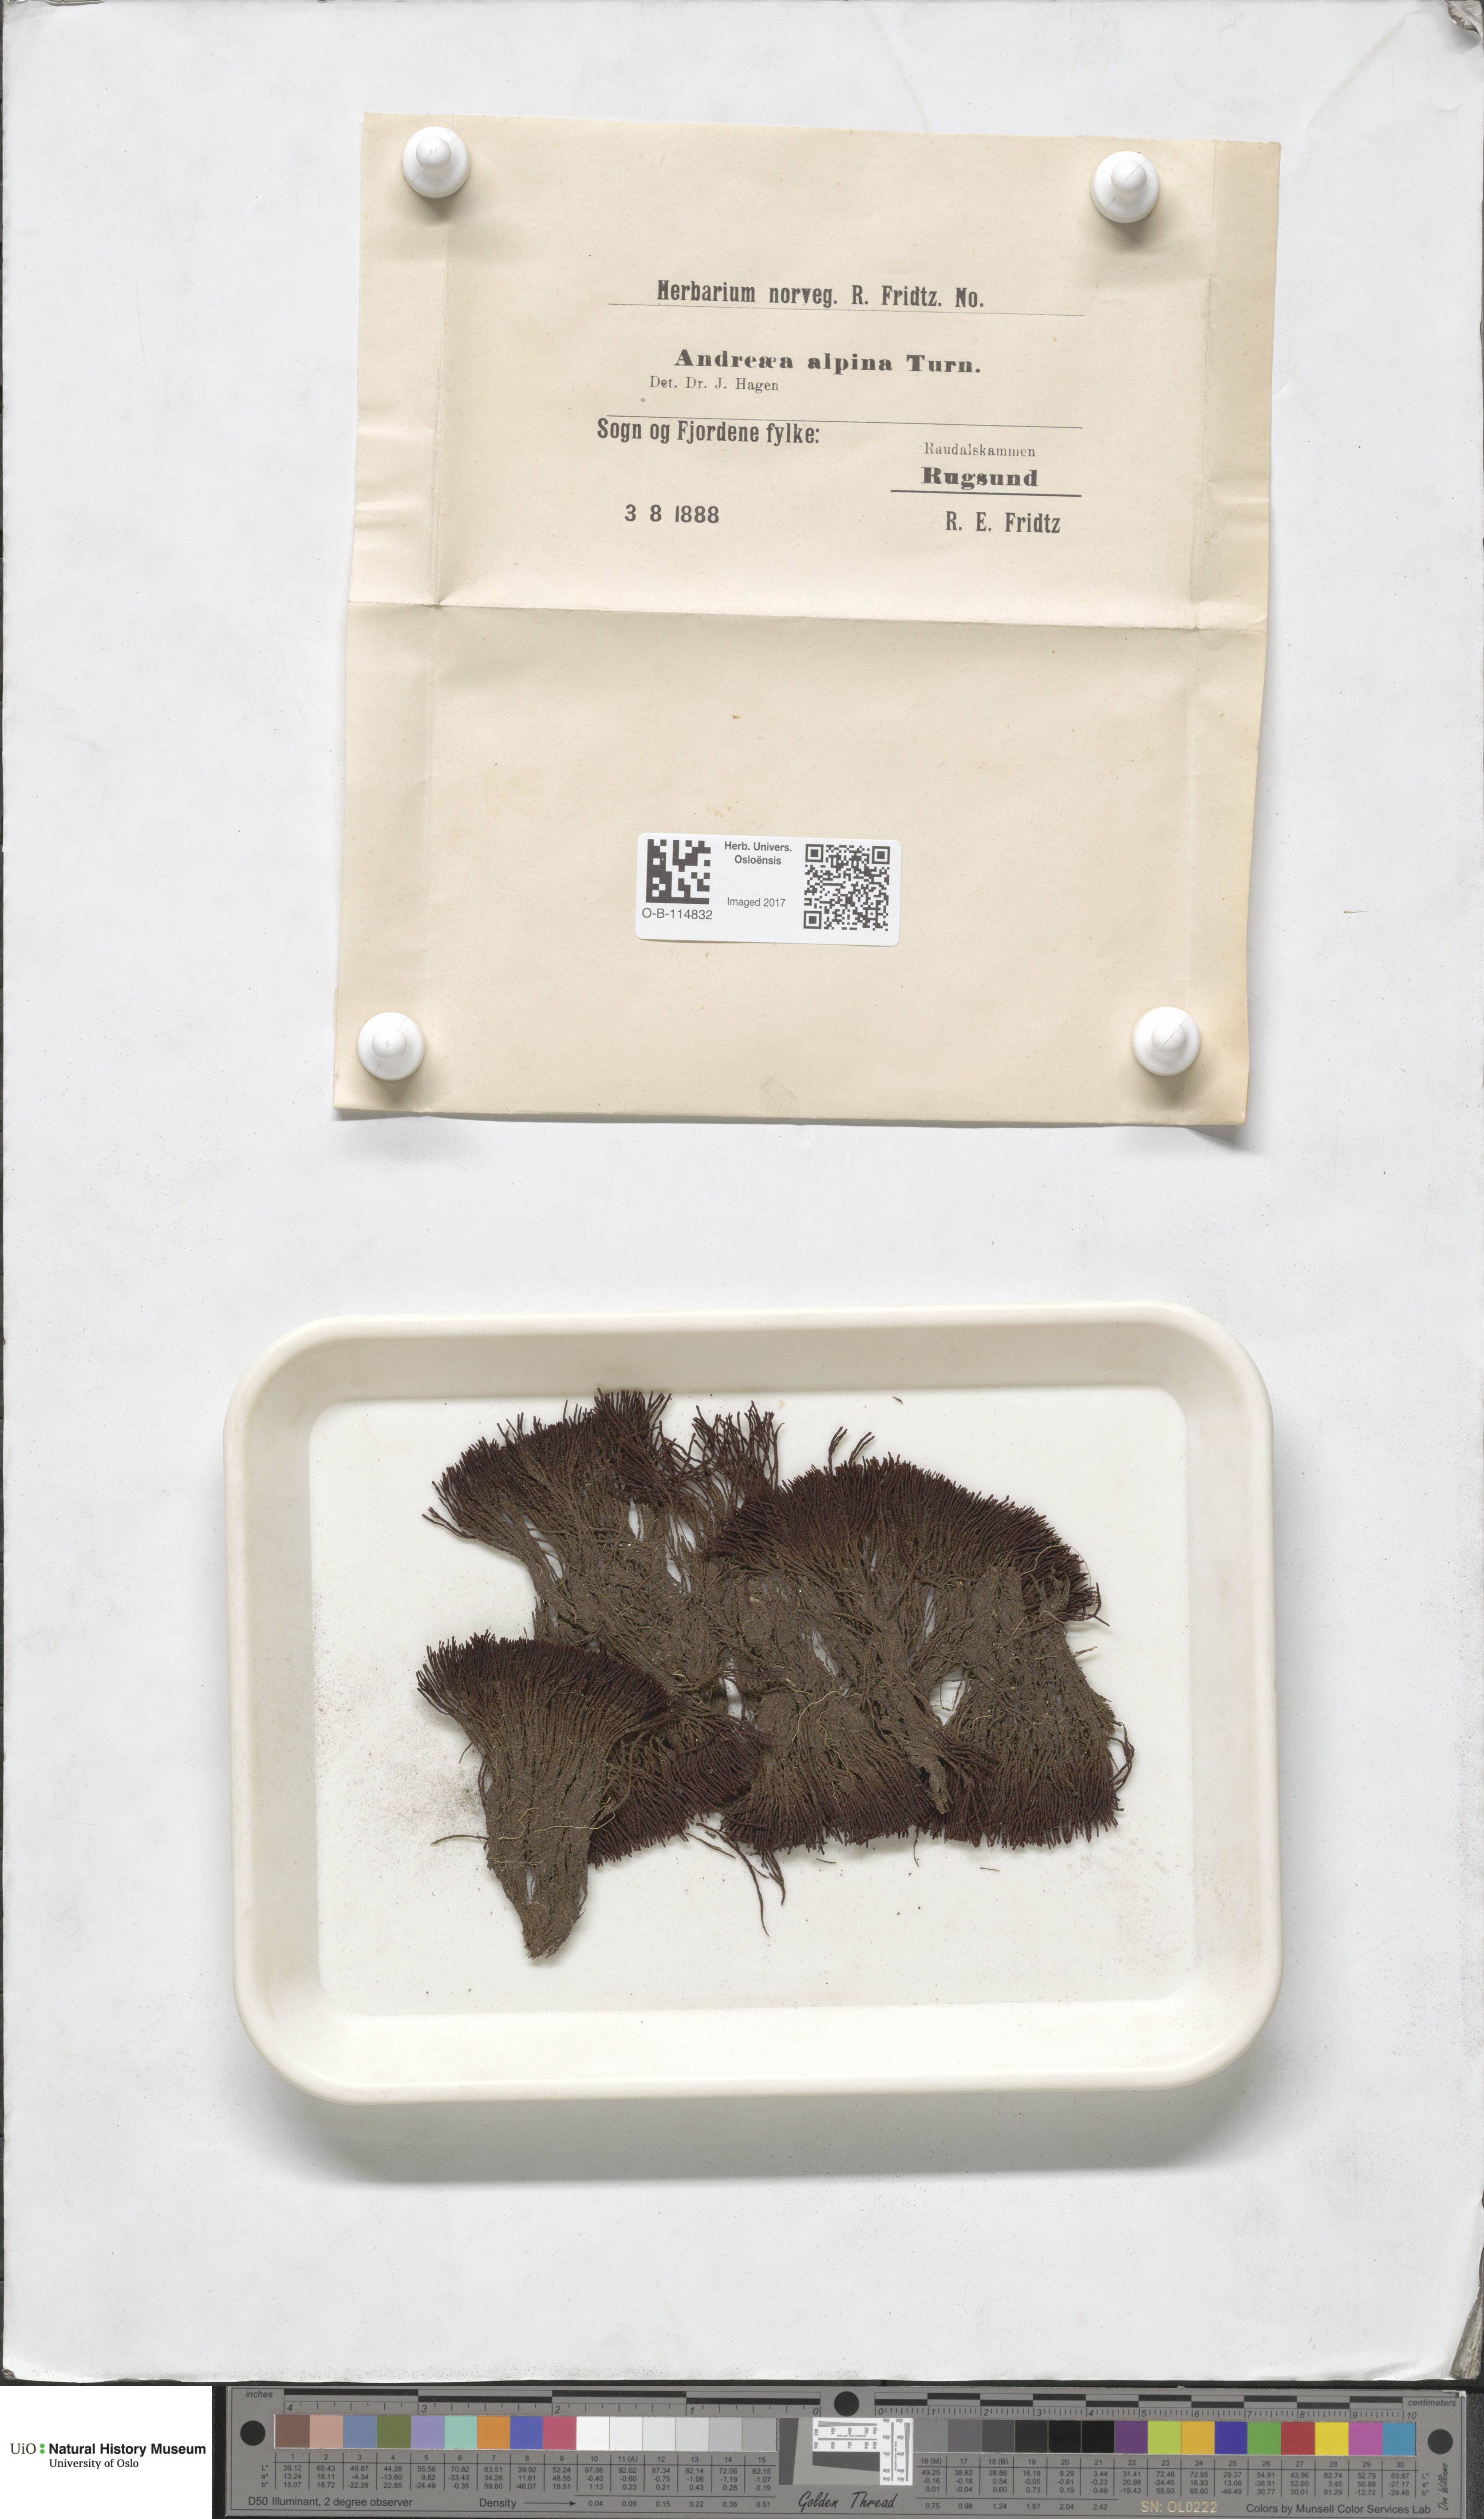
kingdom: Plantae
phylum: Bryophyta
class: Andreaeopsida
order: Andreaeales
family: Andreaeaceae
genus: Andreaea
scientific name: Andreaea hookeri
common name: Alpine rock-moss
